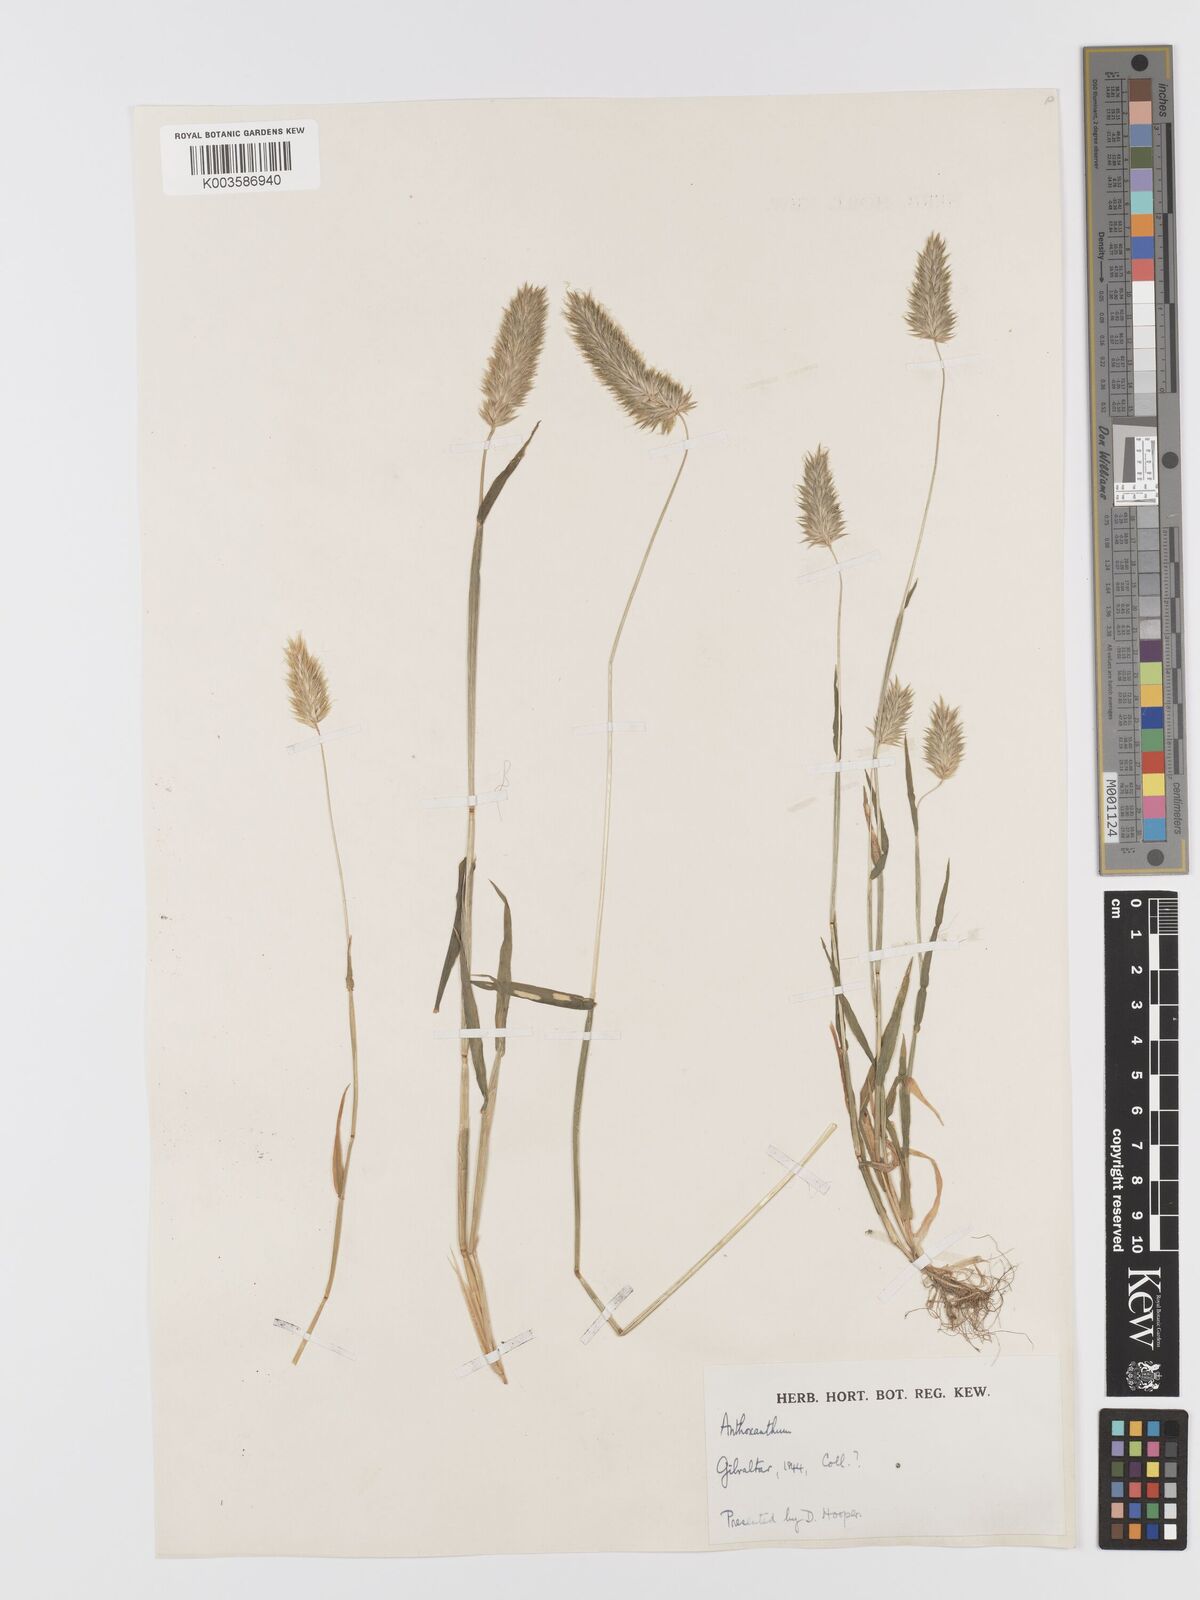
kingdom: Plantae
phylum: Tracheophyta
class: Liliopsida
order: Poales
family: Poaceae
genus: Anthoxanthum
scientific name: Anthoxanthum
